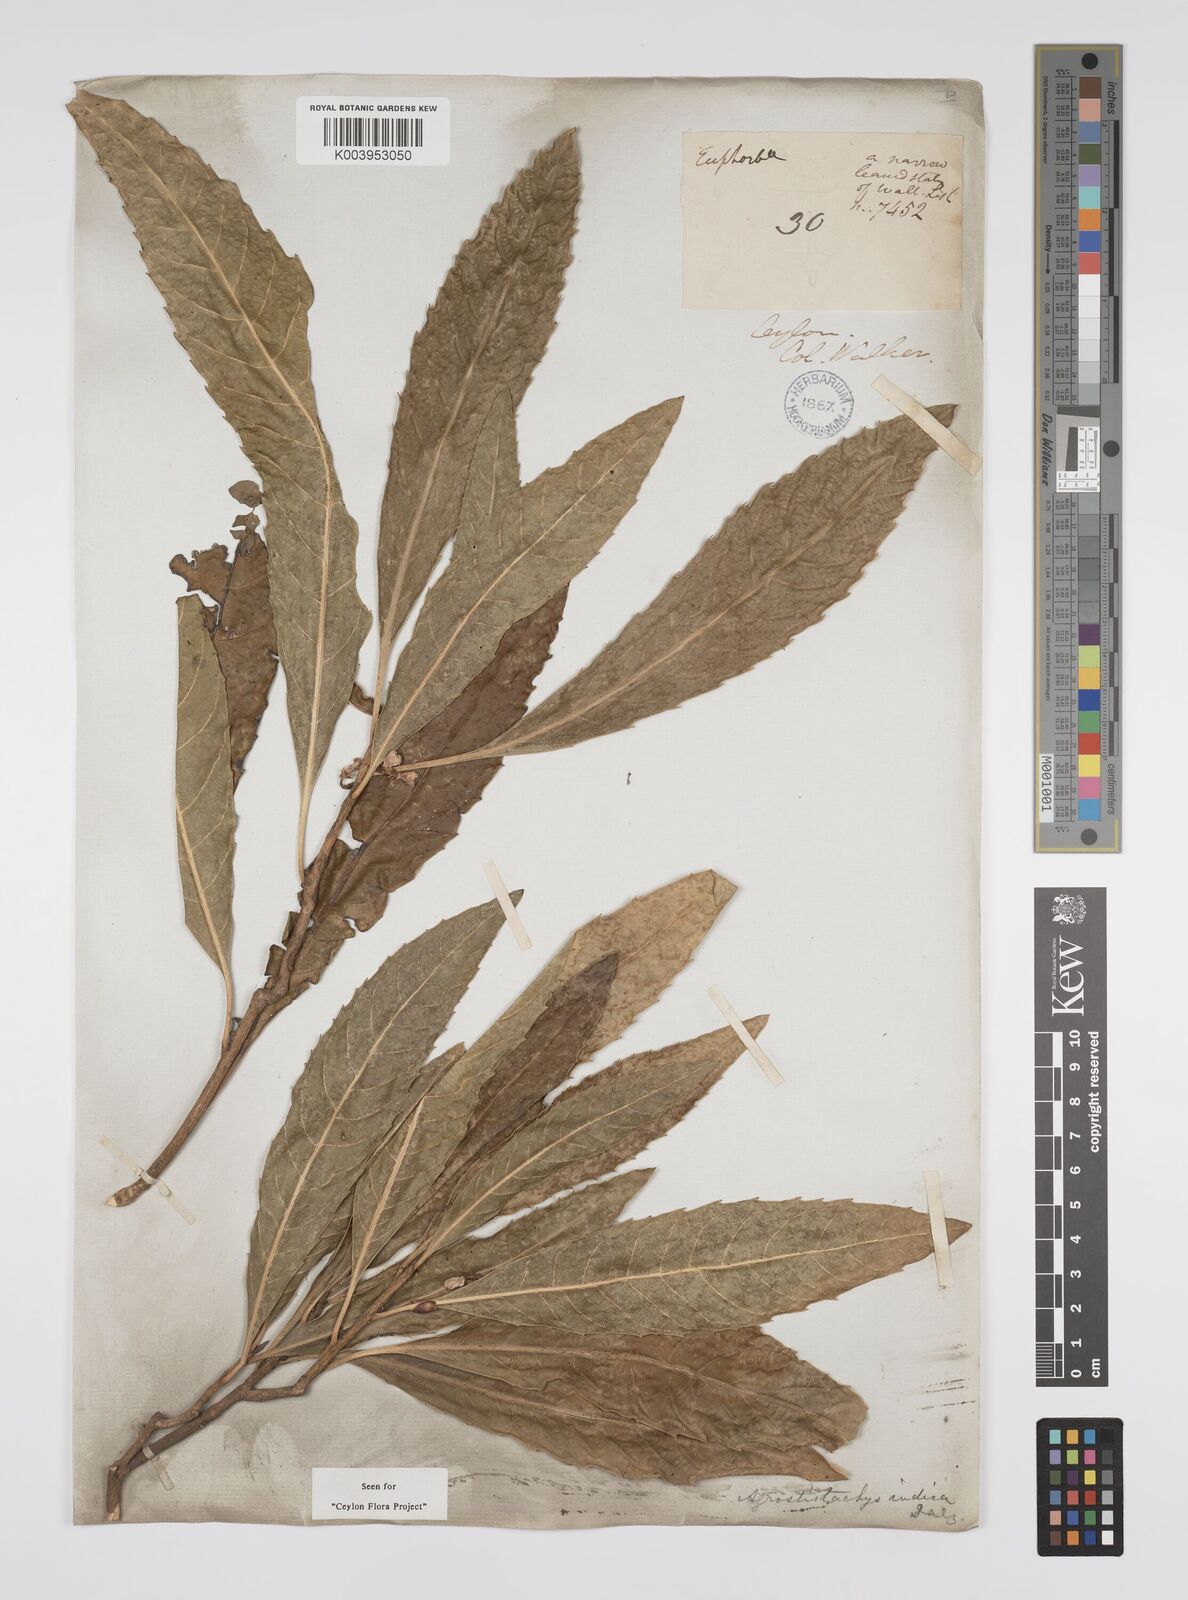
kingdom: Plantae
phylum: Tracheophyta
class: Magnoliopsida
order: Malpighiales
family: Euphorbiaceae
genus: Agrostistachys
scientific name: Agrostistachys indica
